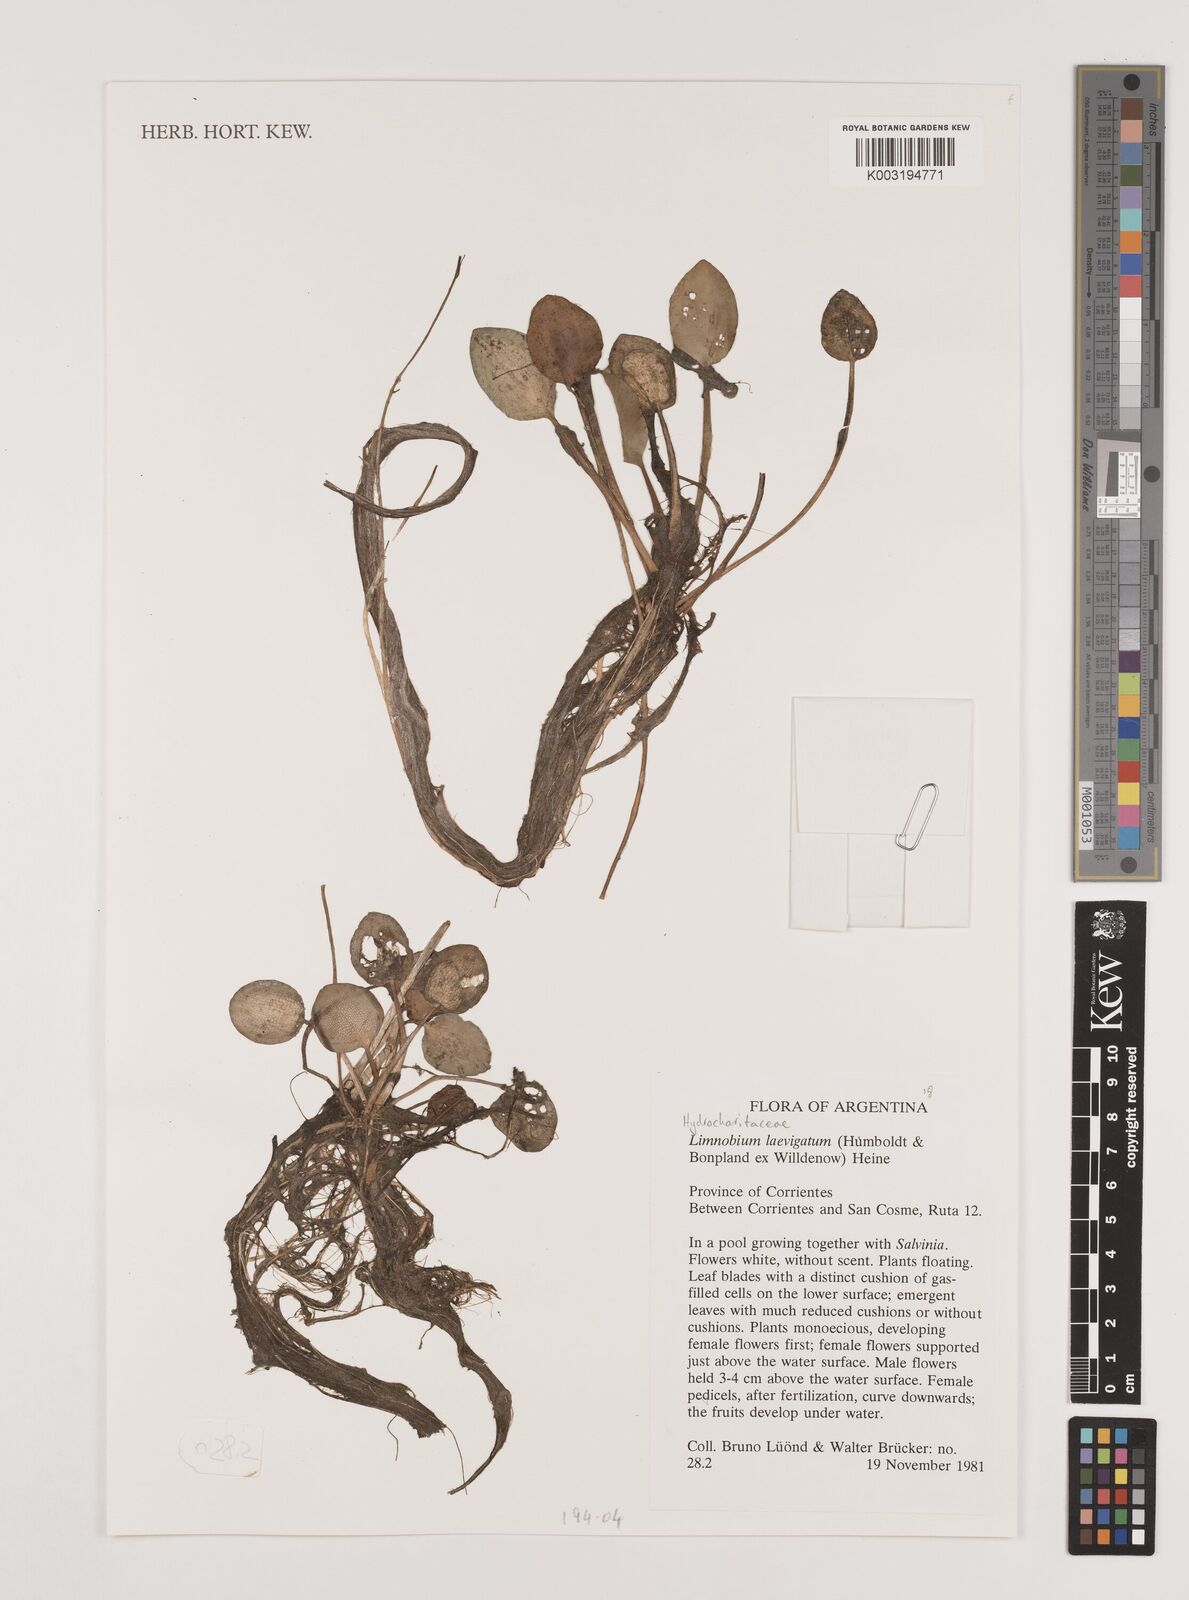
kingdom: Plantae
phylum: Tracheophyta
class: Liliopsida
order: Alismatales
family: Hydrocharitaceae
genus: Hydrocharis
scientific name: Hydrocharis laevigata
